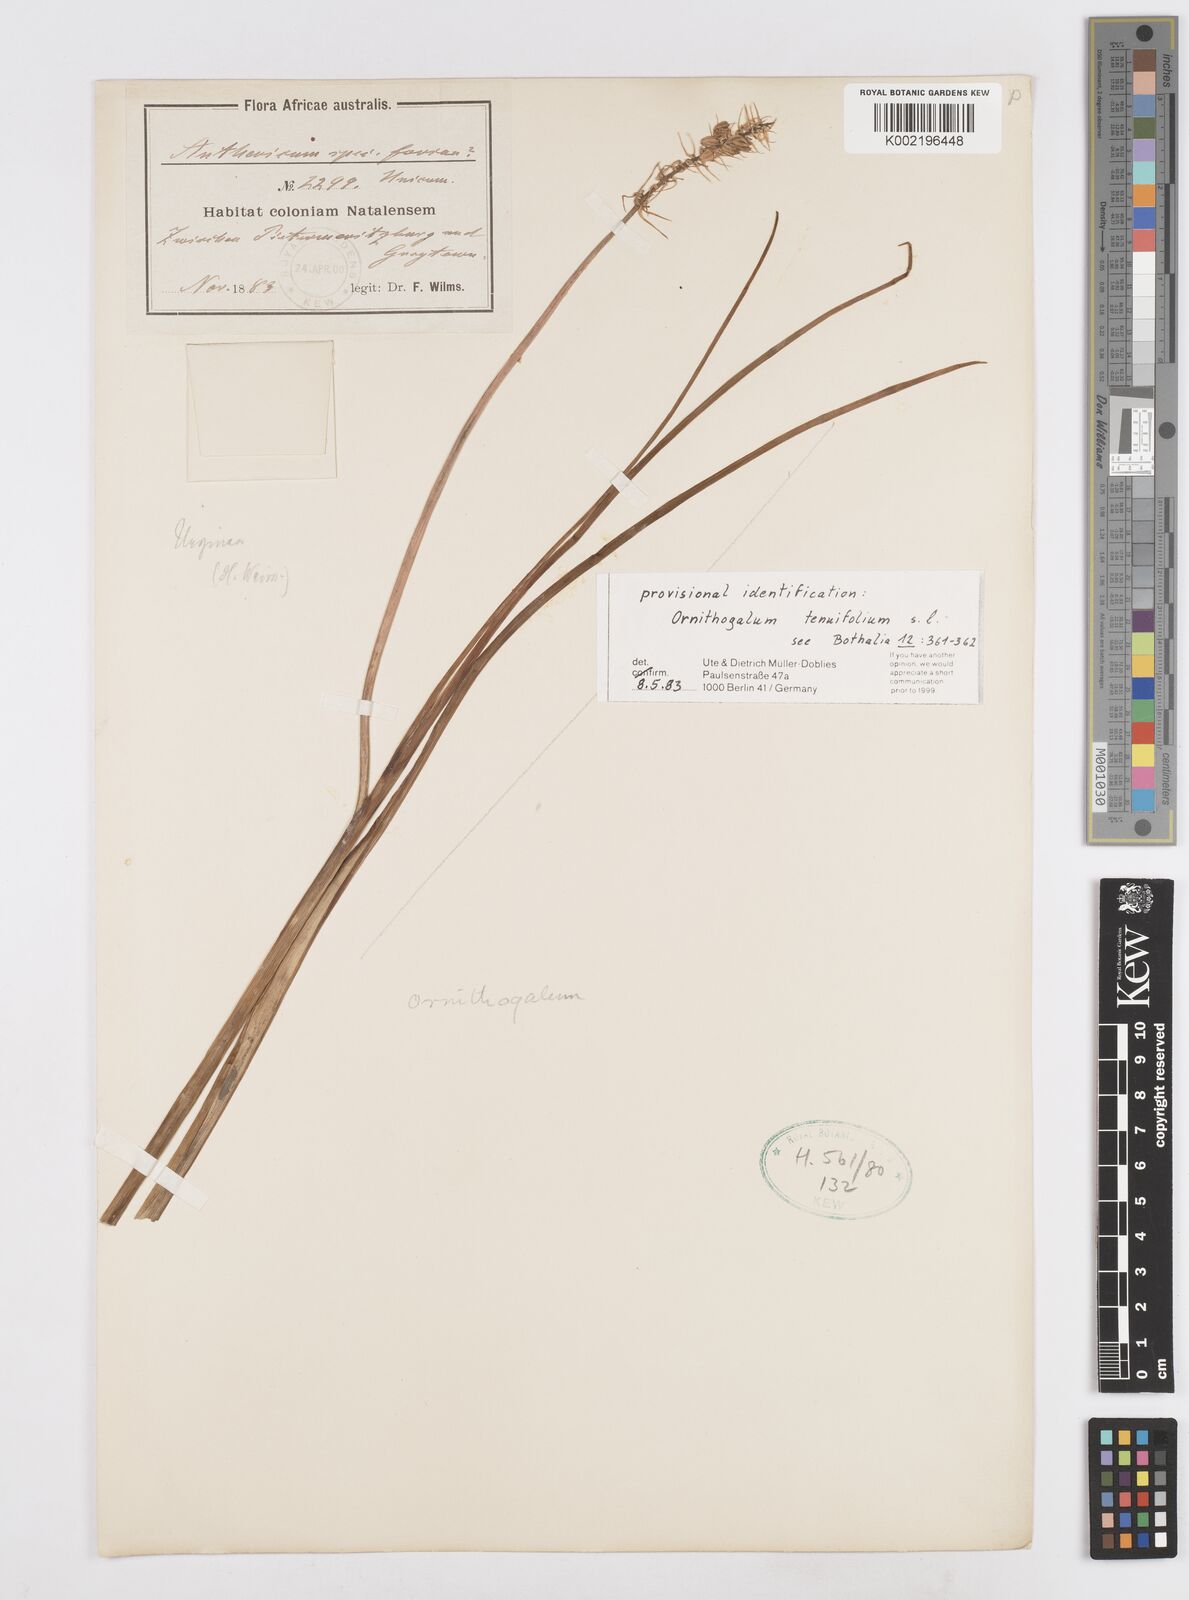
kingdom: Plantae
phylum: Tracheophyta
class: Liliopsida
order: Asparagales
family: Asparagaceae
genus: Albuca
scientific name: Albuca virens
